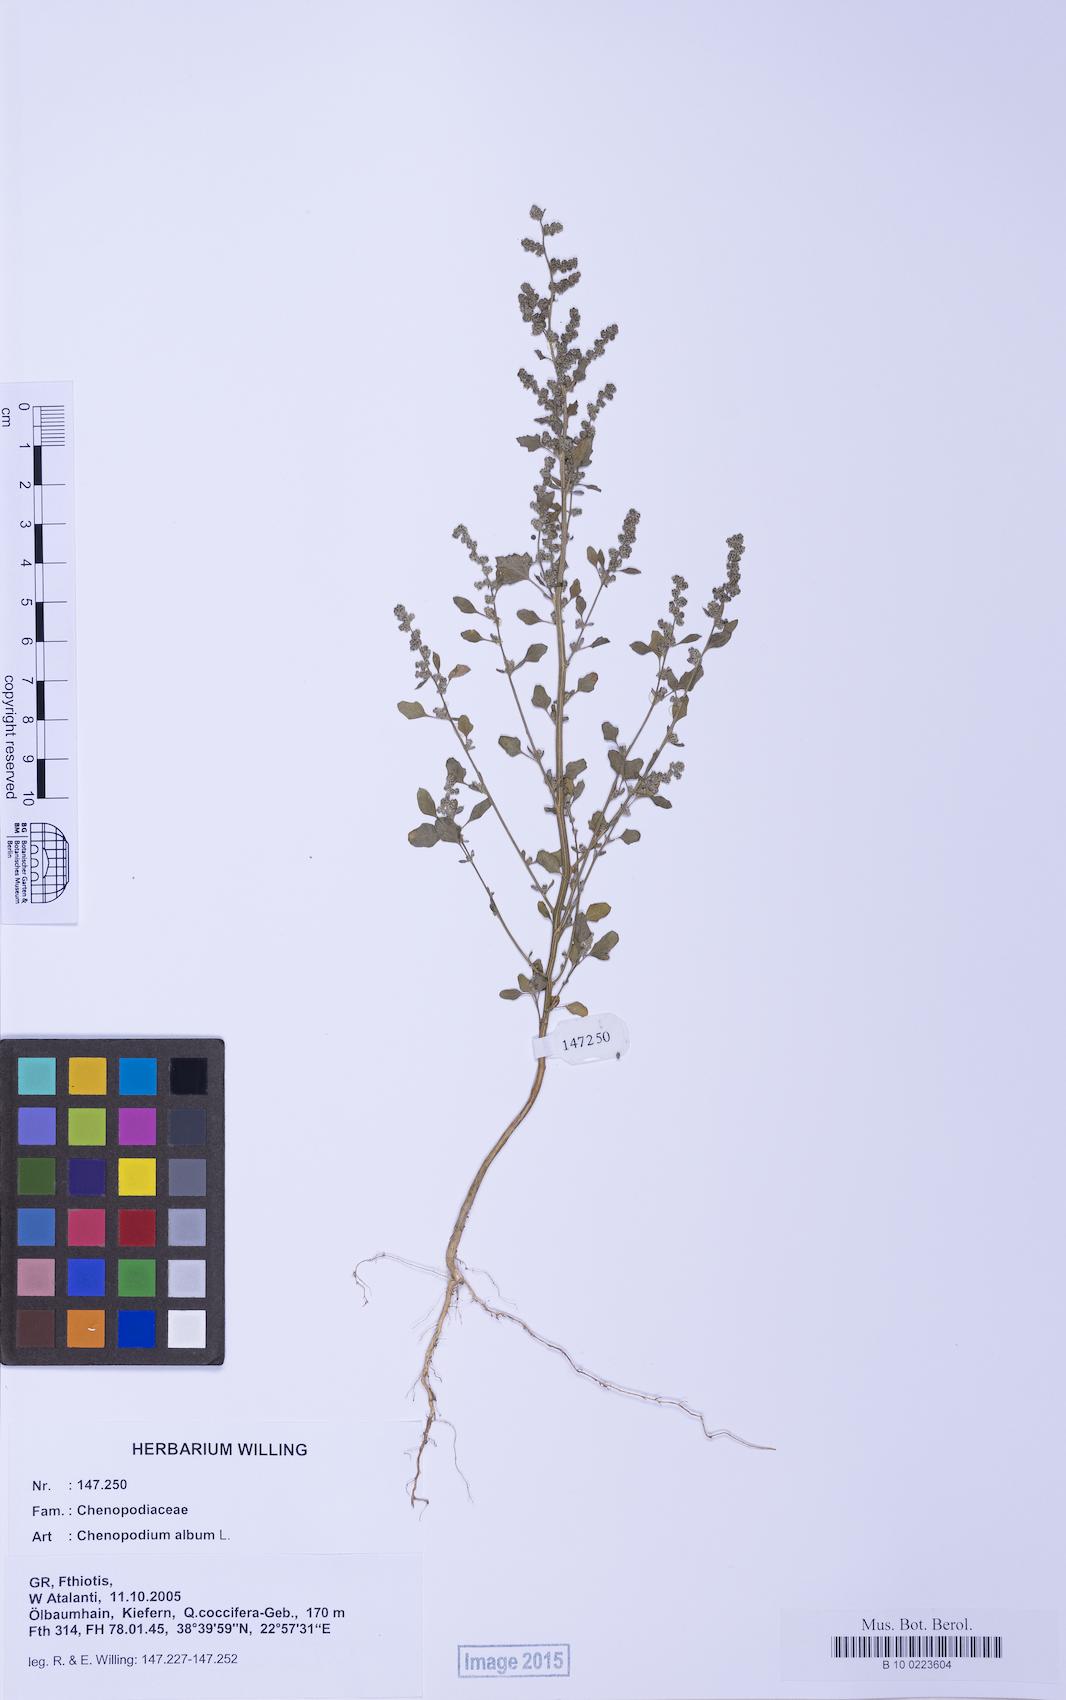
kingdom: Plantae
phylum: Tracheophyta
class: Magnoliopsida
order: Caryophyllales
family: Amaranthaceae
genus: Chenopodium
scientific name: Chenopodium opulifolium
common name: Grey goosefoot
